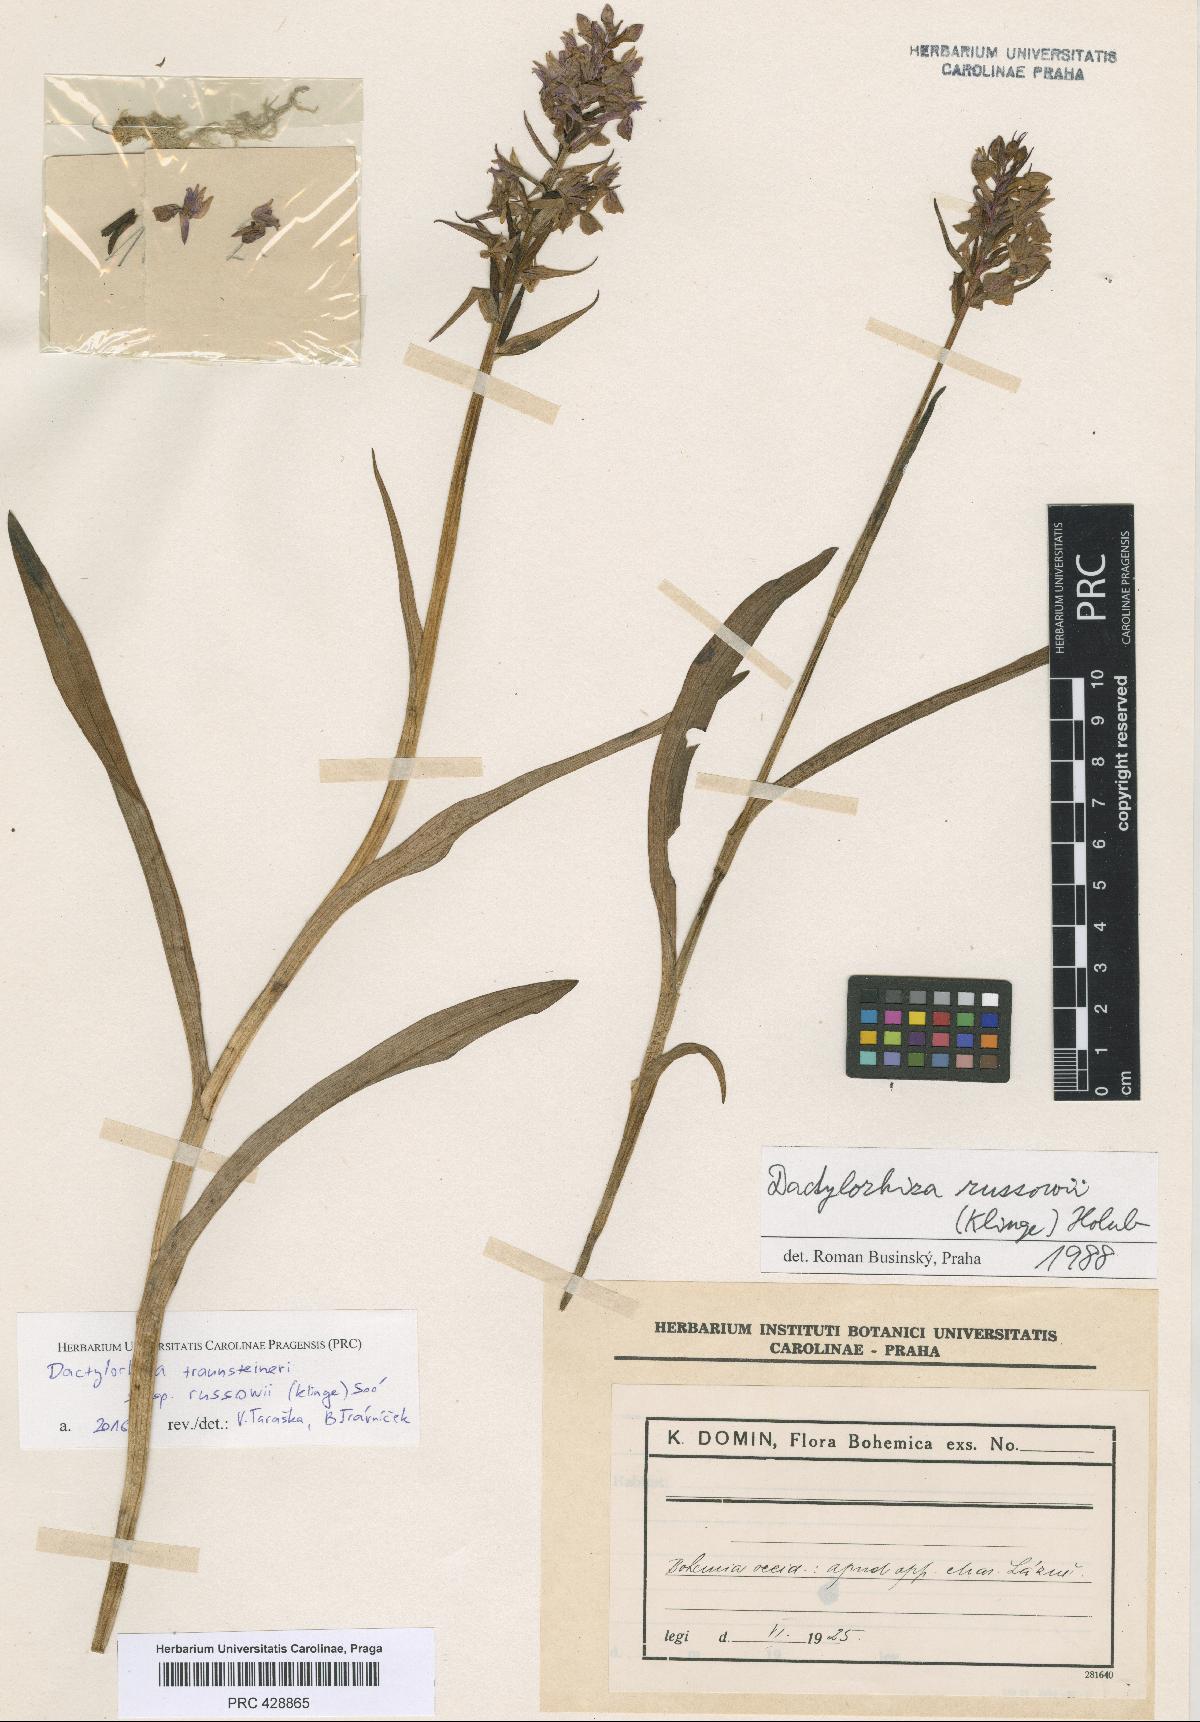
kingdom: Plantae
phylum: Tracheophyta
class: Liliopsida
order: Asparagales
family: Orchidaceae
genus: Dactylorhiza
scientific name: Dactylorhiza russowii
